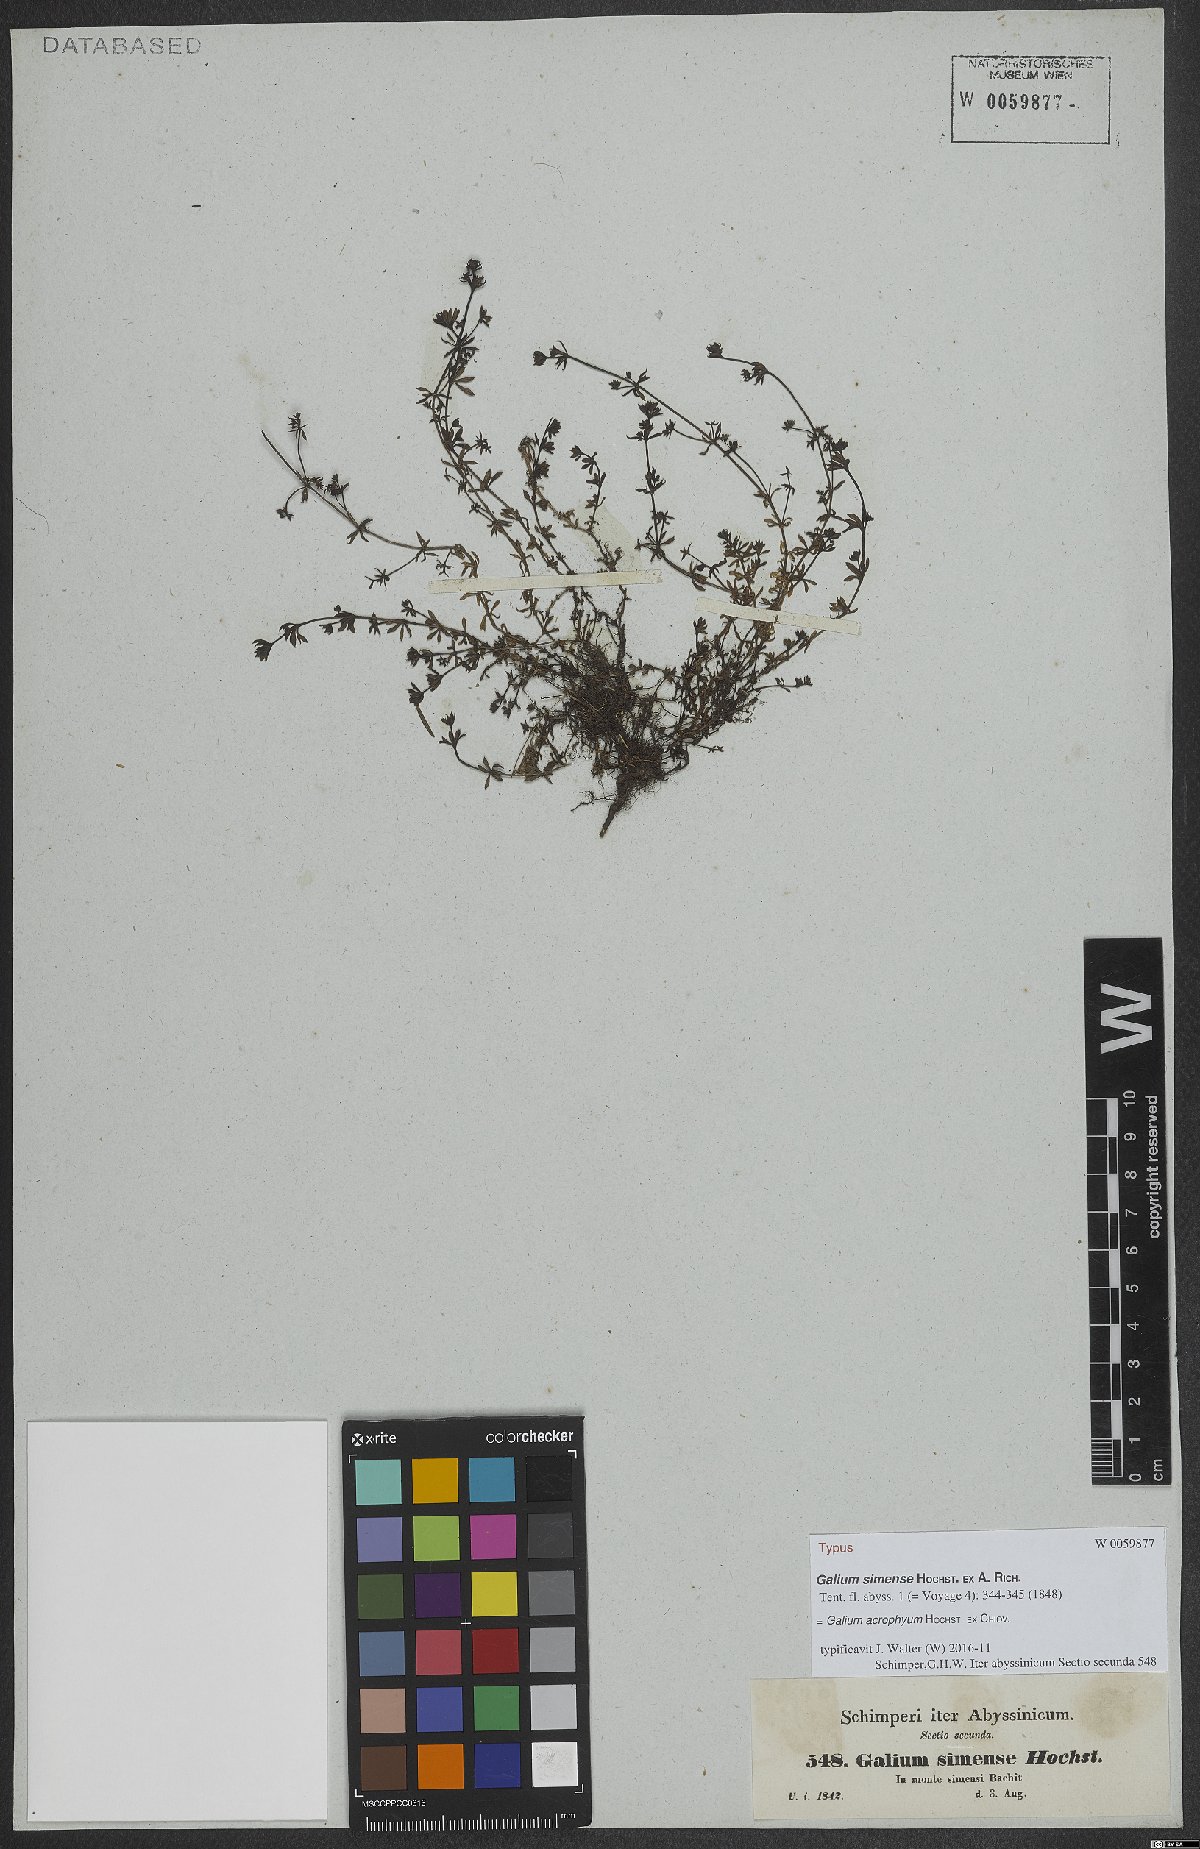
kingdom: Plantae
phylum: Tracheophyta
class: Magnoliopsida
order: Gentianales
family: Rubiaceae
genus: Galium
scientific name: Galium acrophyum
